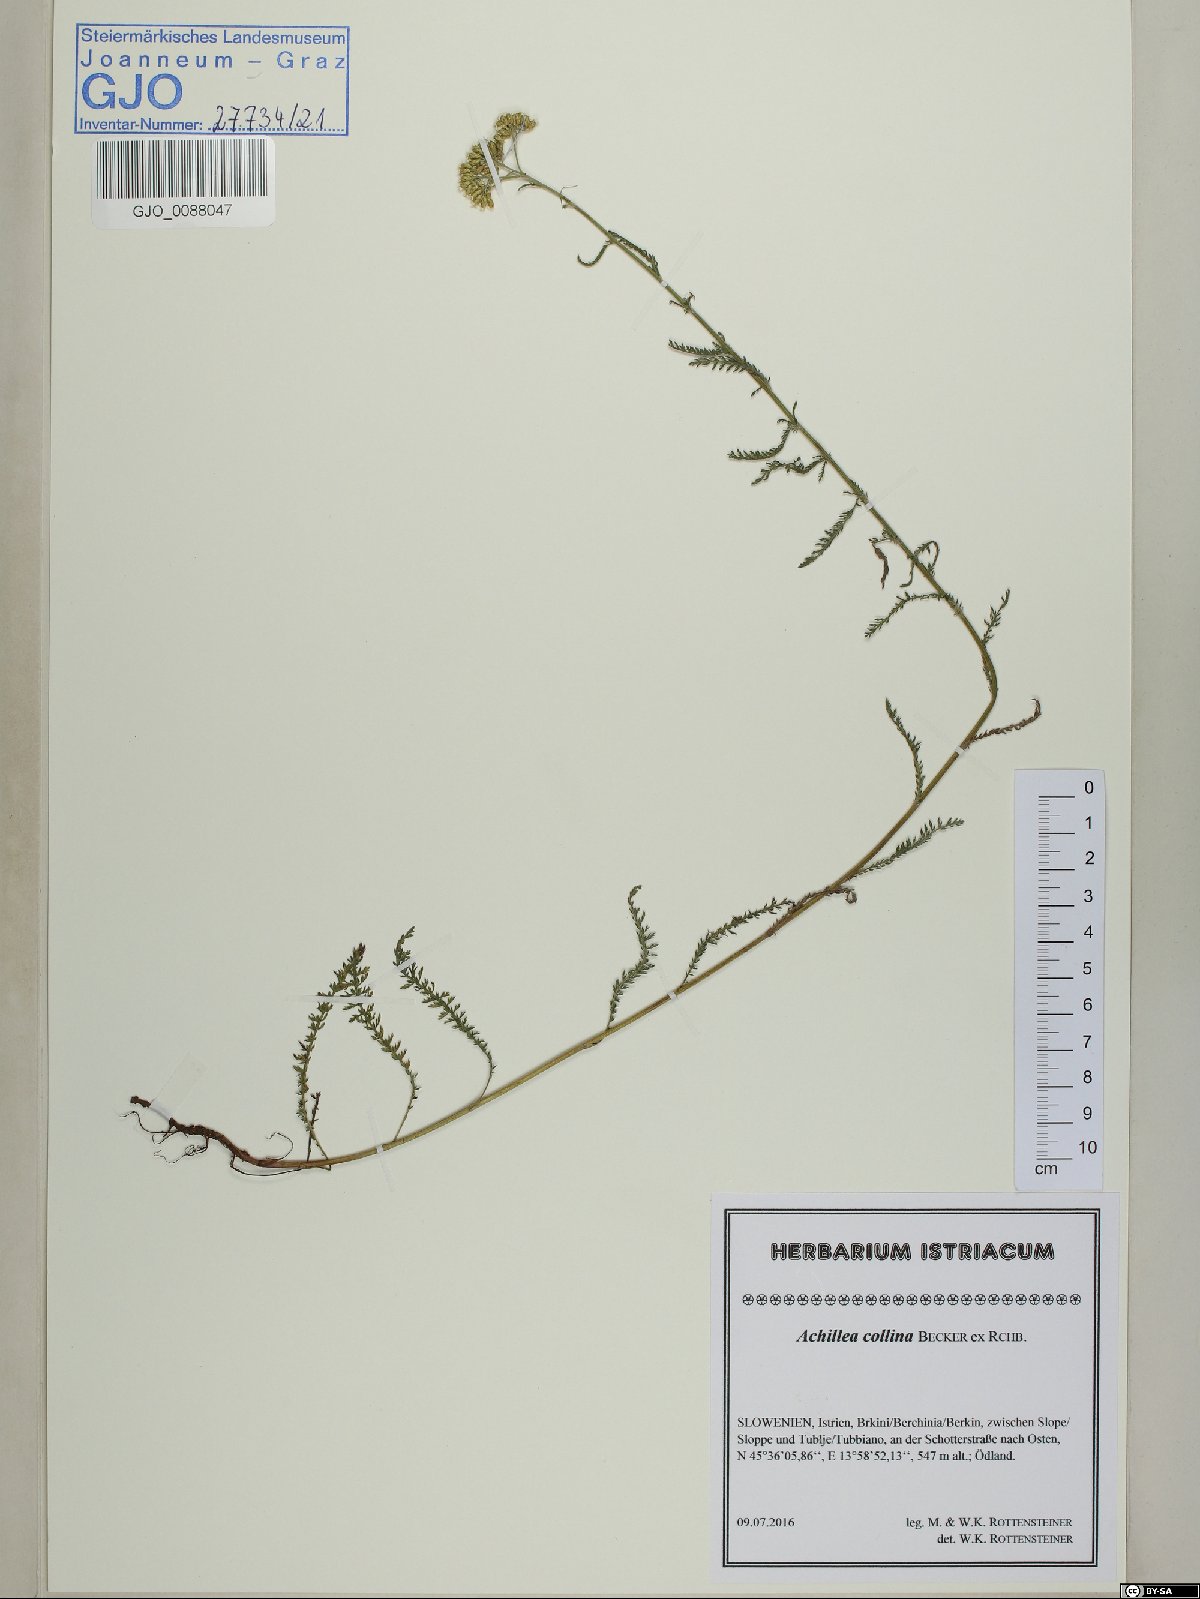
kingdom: Plantae
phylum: Tracheophyta
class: Magnoliopsida
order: Asterales
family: Asteraceae
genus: Achillea
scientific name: Achillea collina
